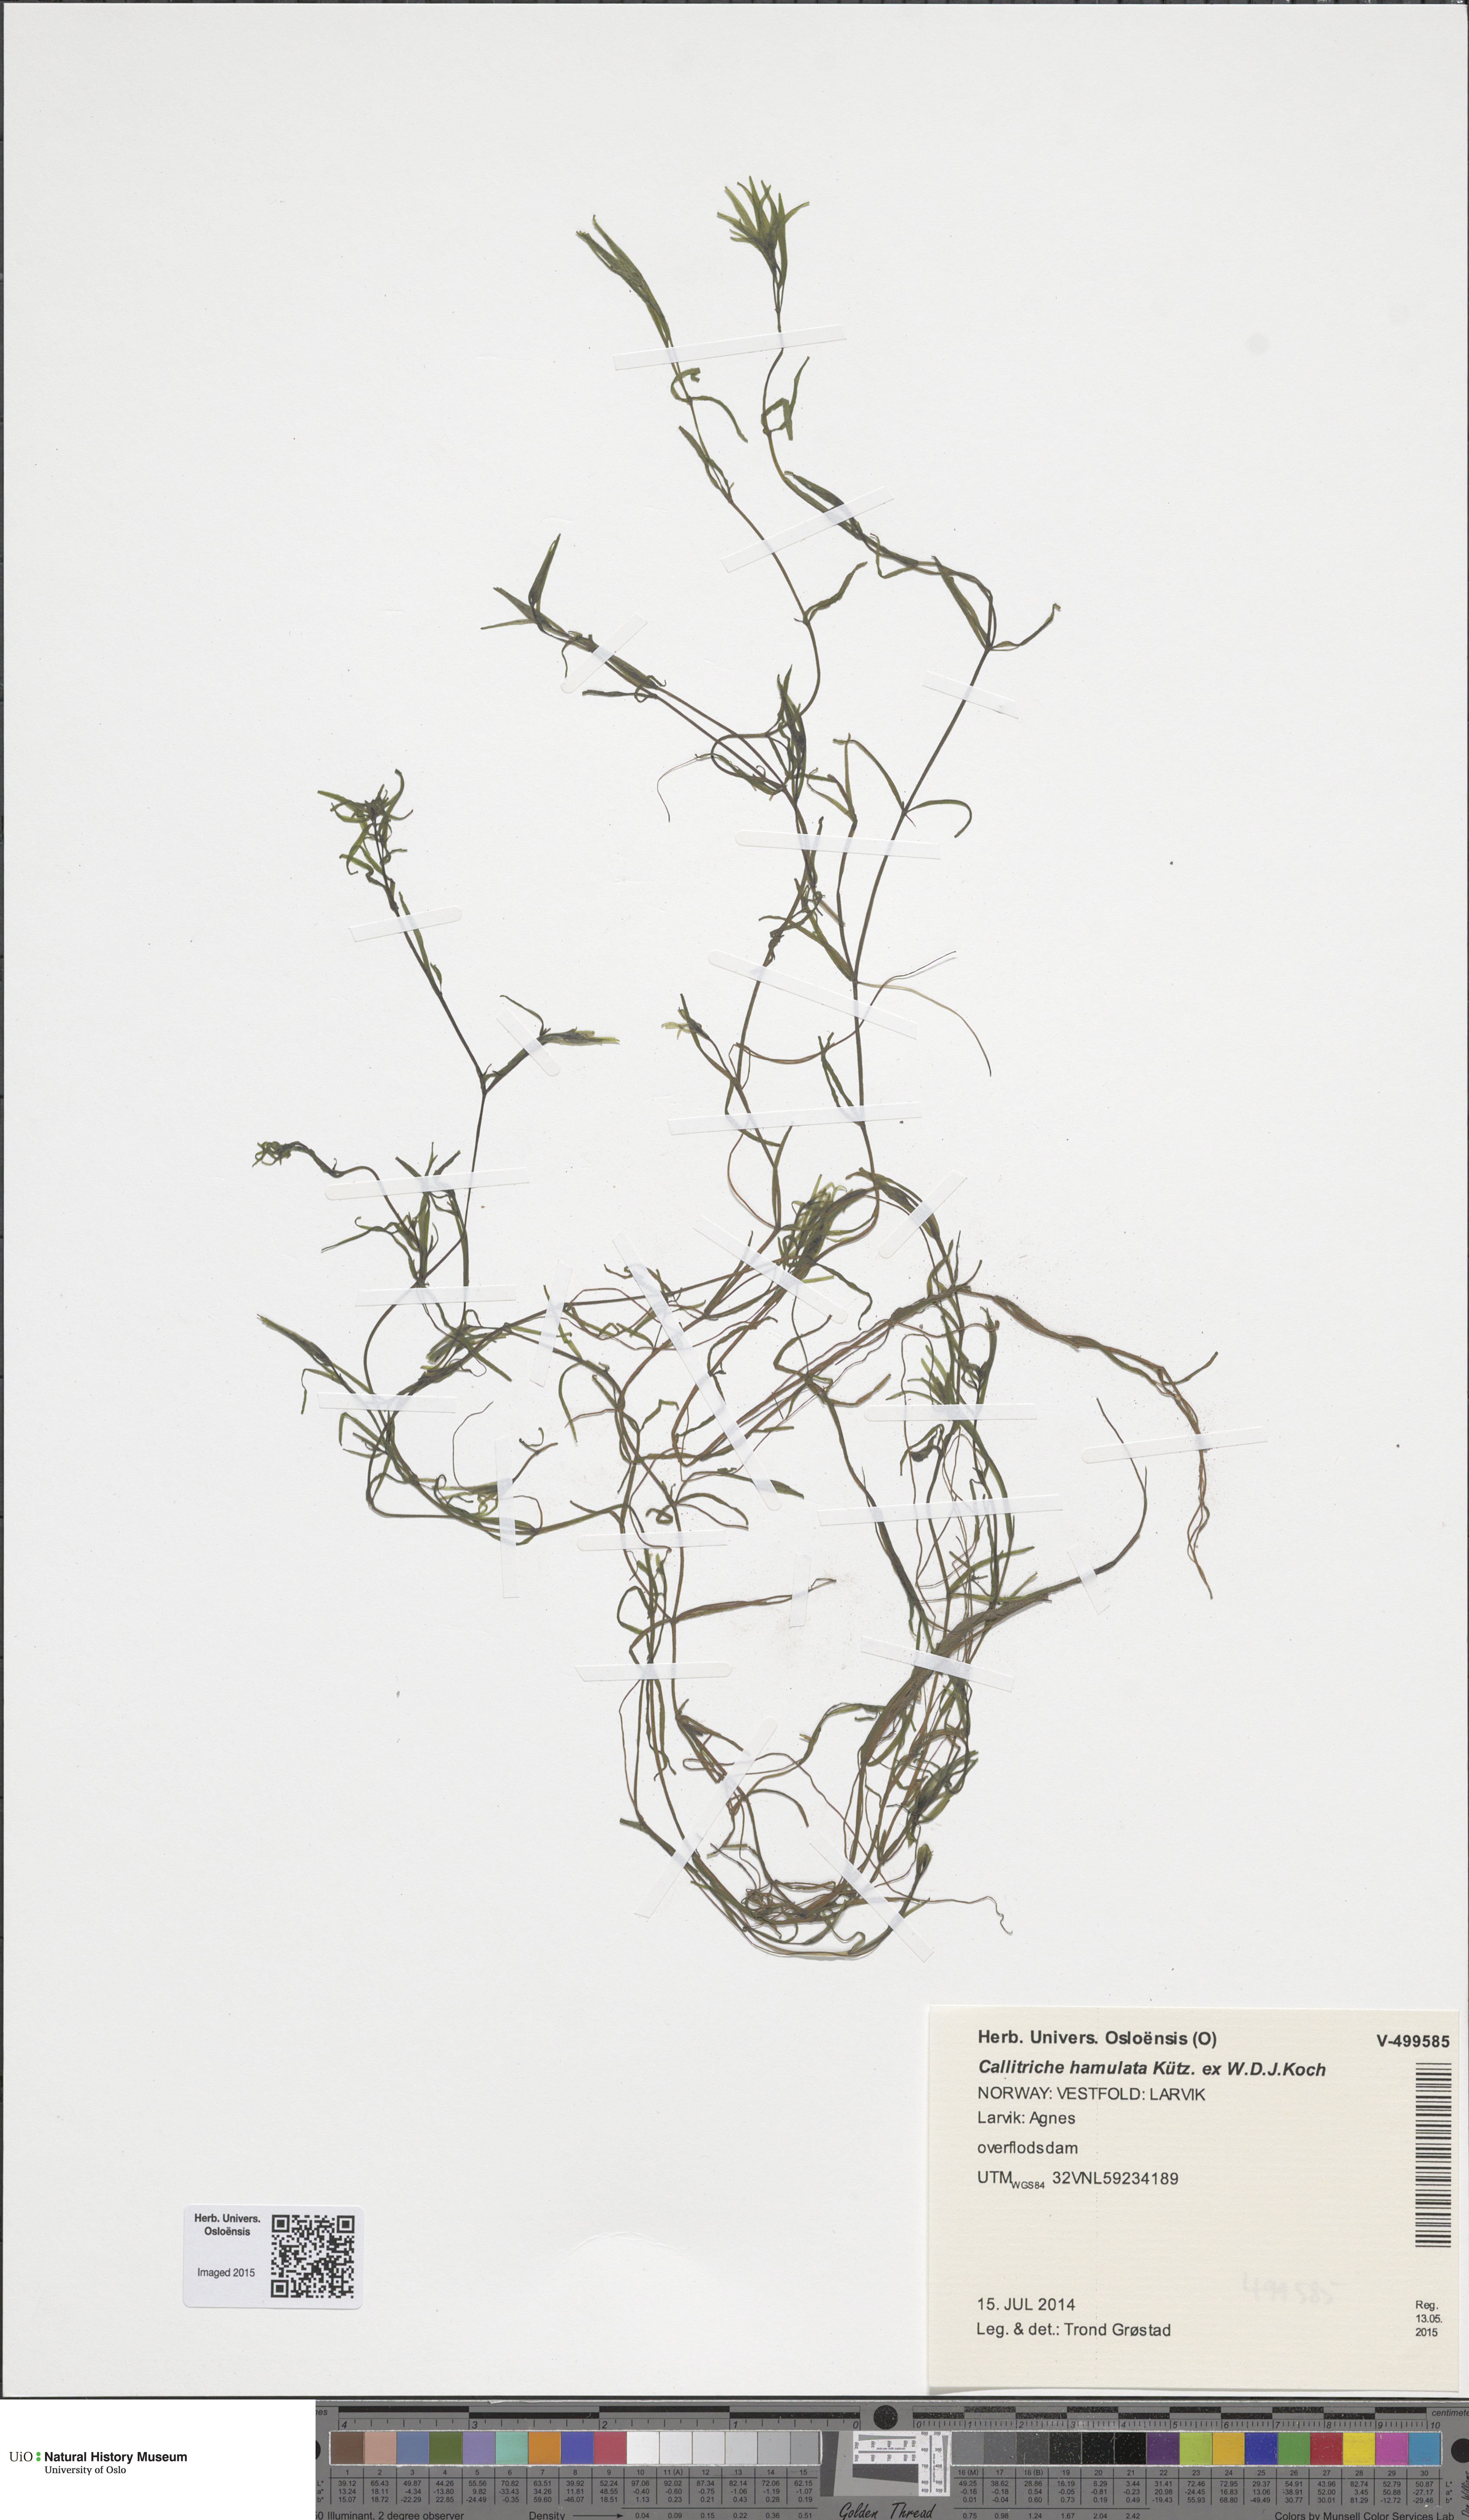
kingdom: Plantae
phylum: Tracheophyta
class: Magnoliopsida
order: Lamiales
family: Plantaginaceae
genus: Callitriche
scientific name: Callitriche hamulata
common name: Intermediate water-starwort
